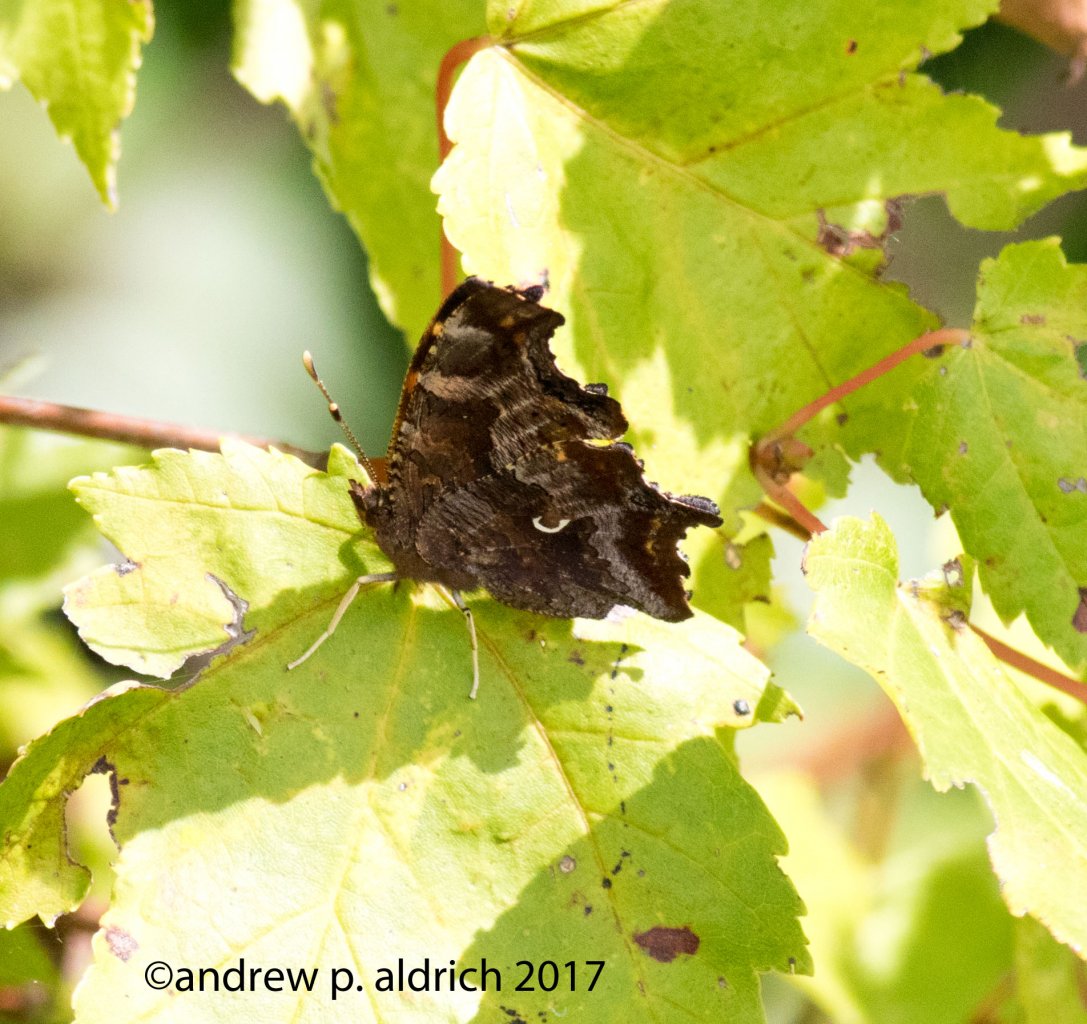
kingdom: Animalia
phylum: Arthropoda
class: Insecta
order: Lepidoptera
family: Nymphalidae
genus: Polygonia
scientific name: Polygonia comma
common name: Eastern Comma
